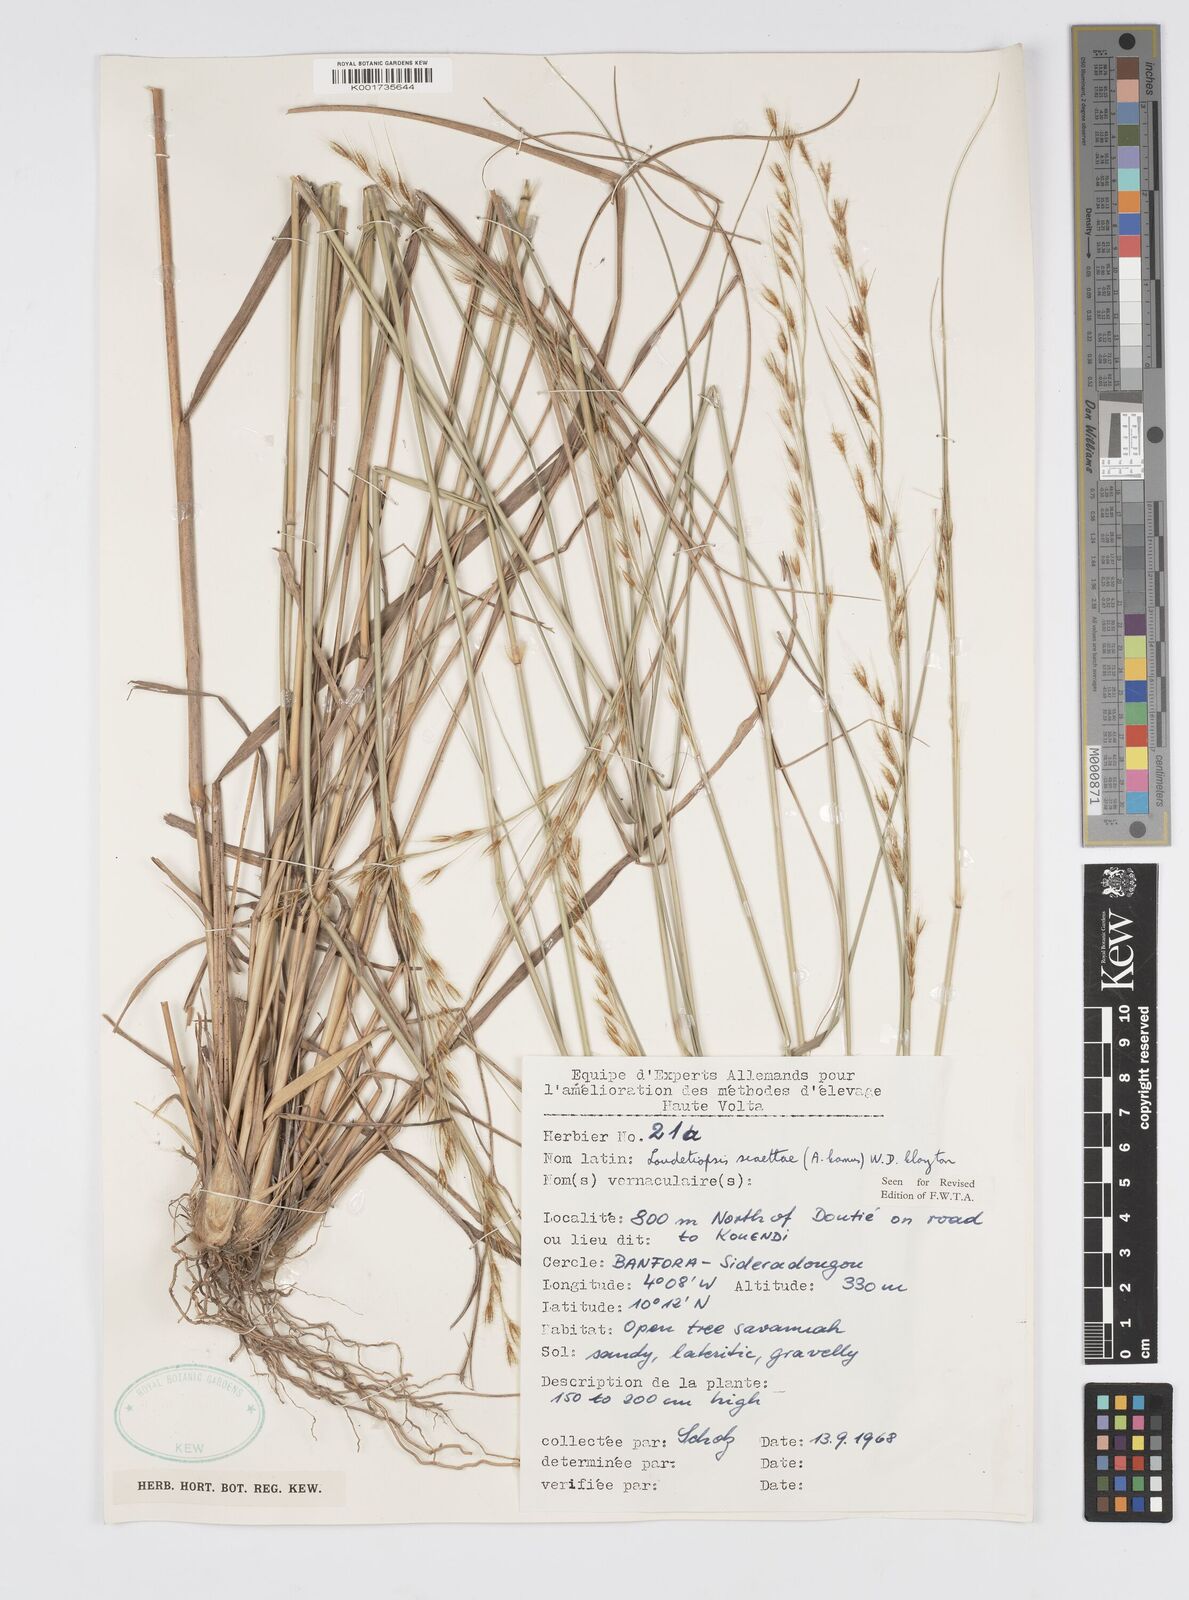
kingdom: Plantae
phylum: Tracheophyta
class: Liliopsida
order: Poales
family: Poaceae
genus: Loudetiopsis
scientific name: Loudetiopsis scaettae
